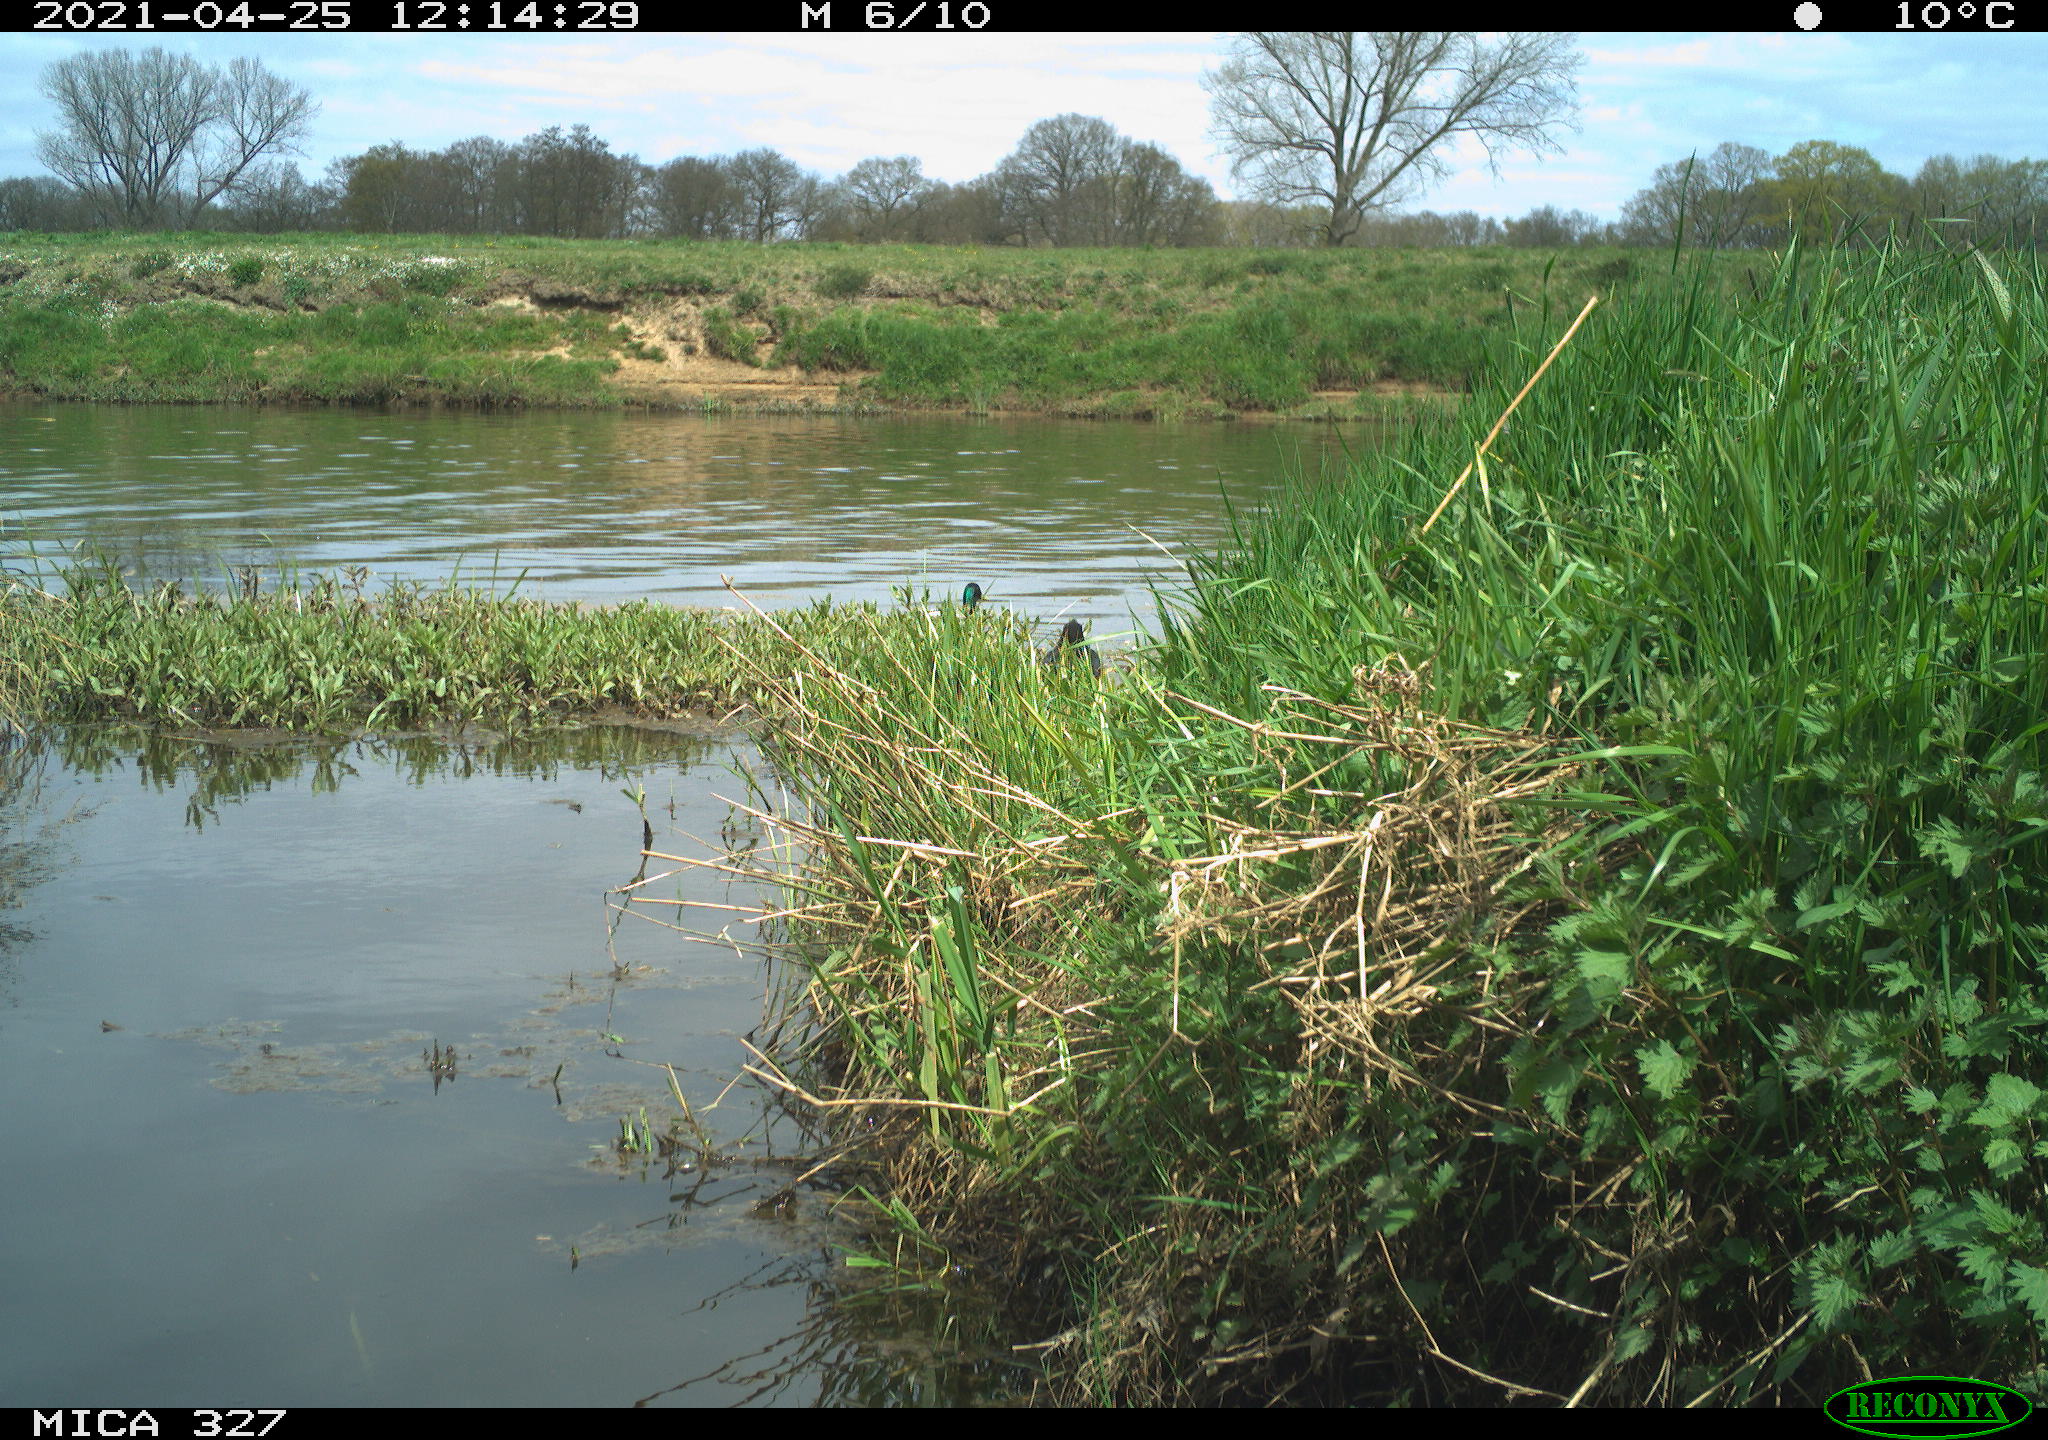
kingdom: Animalia
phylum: Chordata
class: Aves
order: Anseriformes
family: Anatidae
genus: Anas
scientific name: Anas platyrhynchos
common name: Mallard
